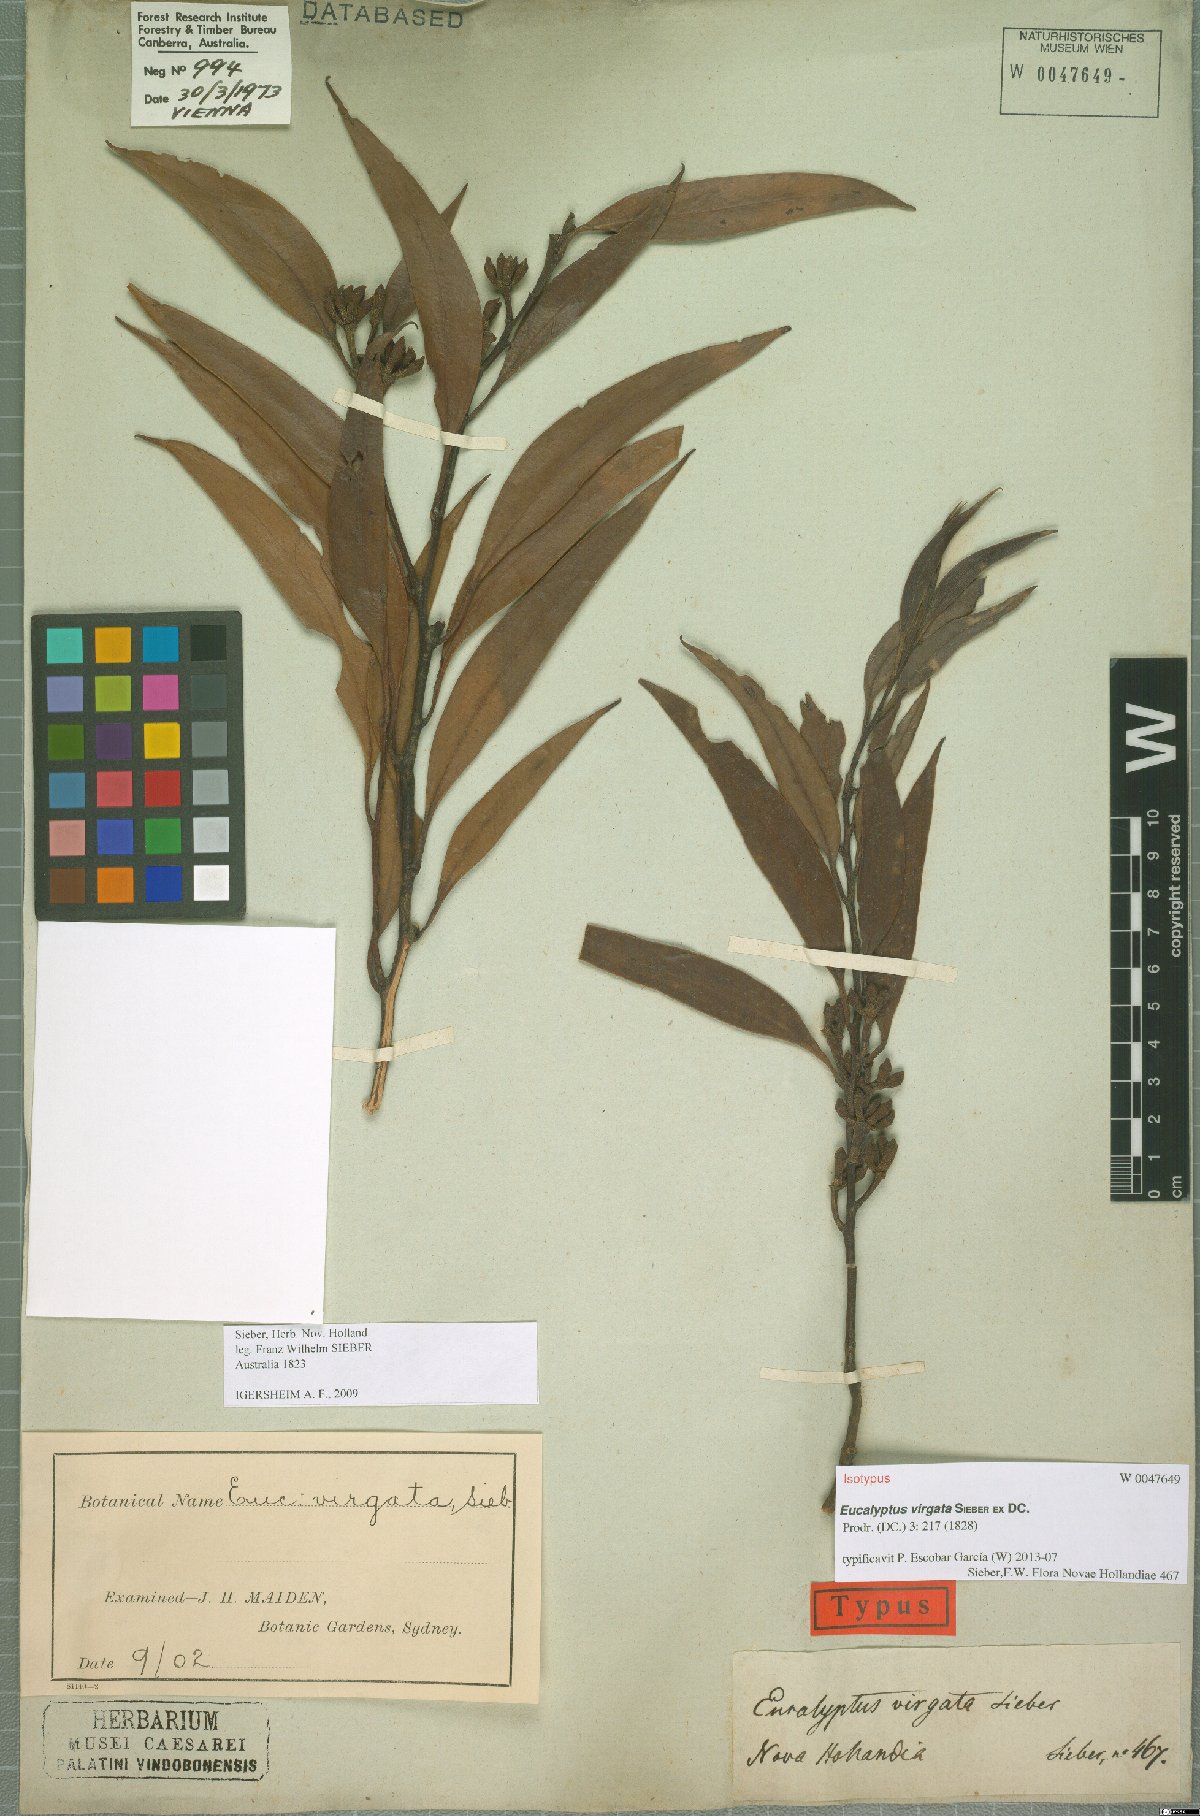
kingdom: Plantae
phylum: Tracheophyta
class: Magnoliopsida
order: Myrtales
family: Myrtaceae
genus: Eucalyptus
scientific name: Eucalyptus virgata
